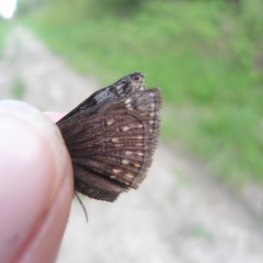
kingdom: Animalia
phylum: Arthropoda
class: Insecta
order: Lepidoptera
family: Hesperiidae
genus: Gesta
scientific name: Gesta
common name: Columbine Duskywing
